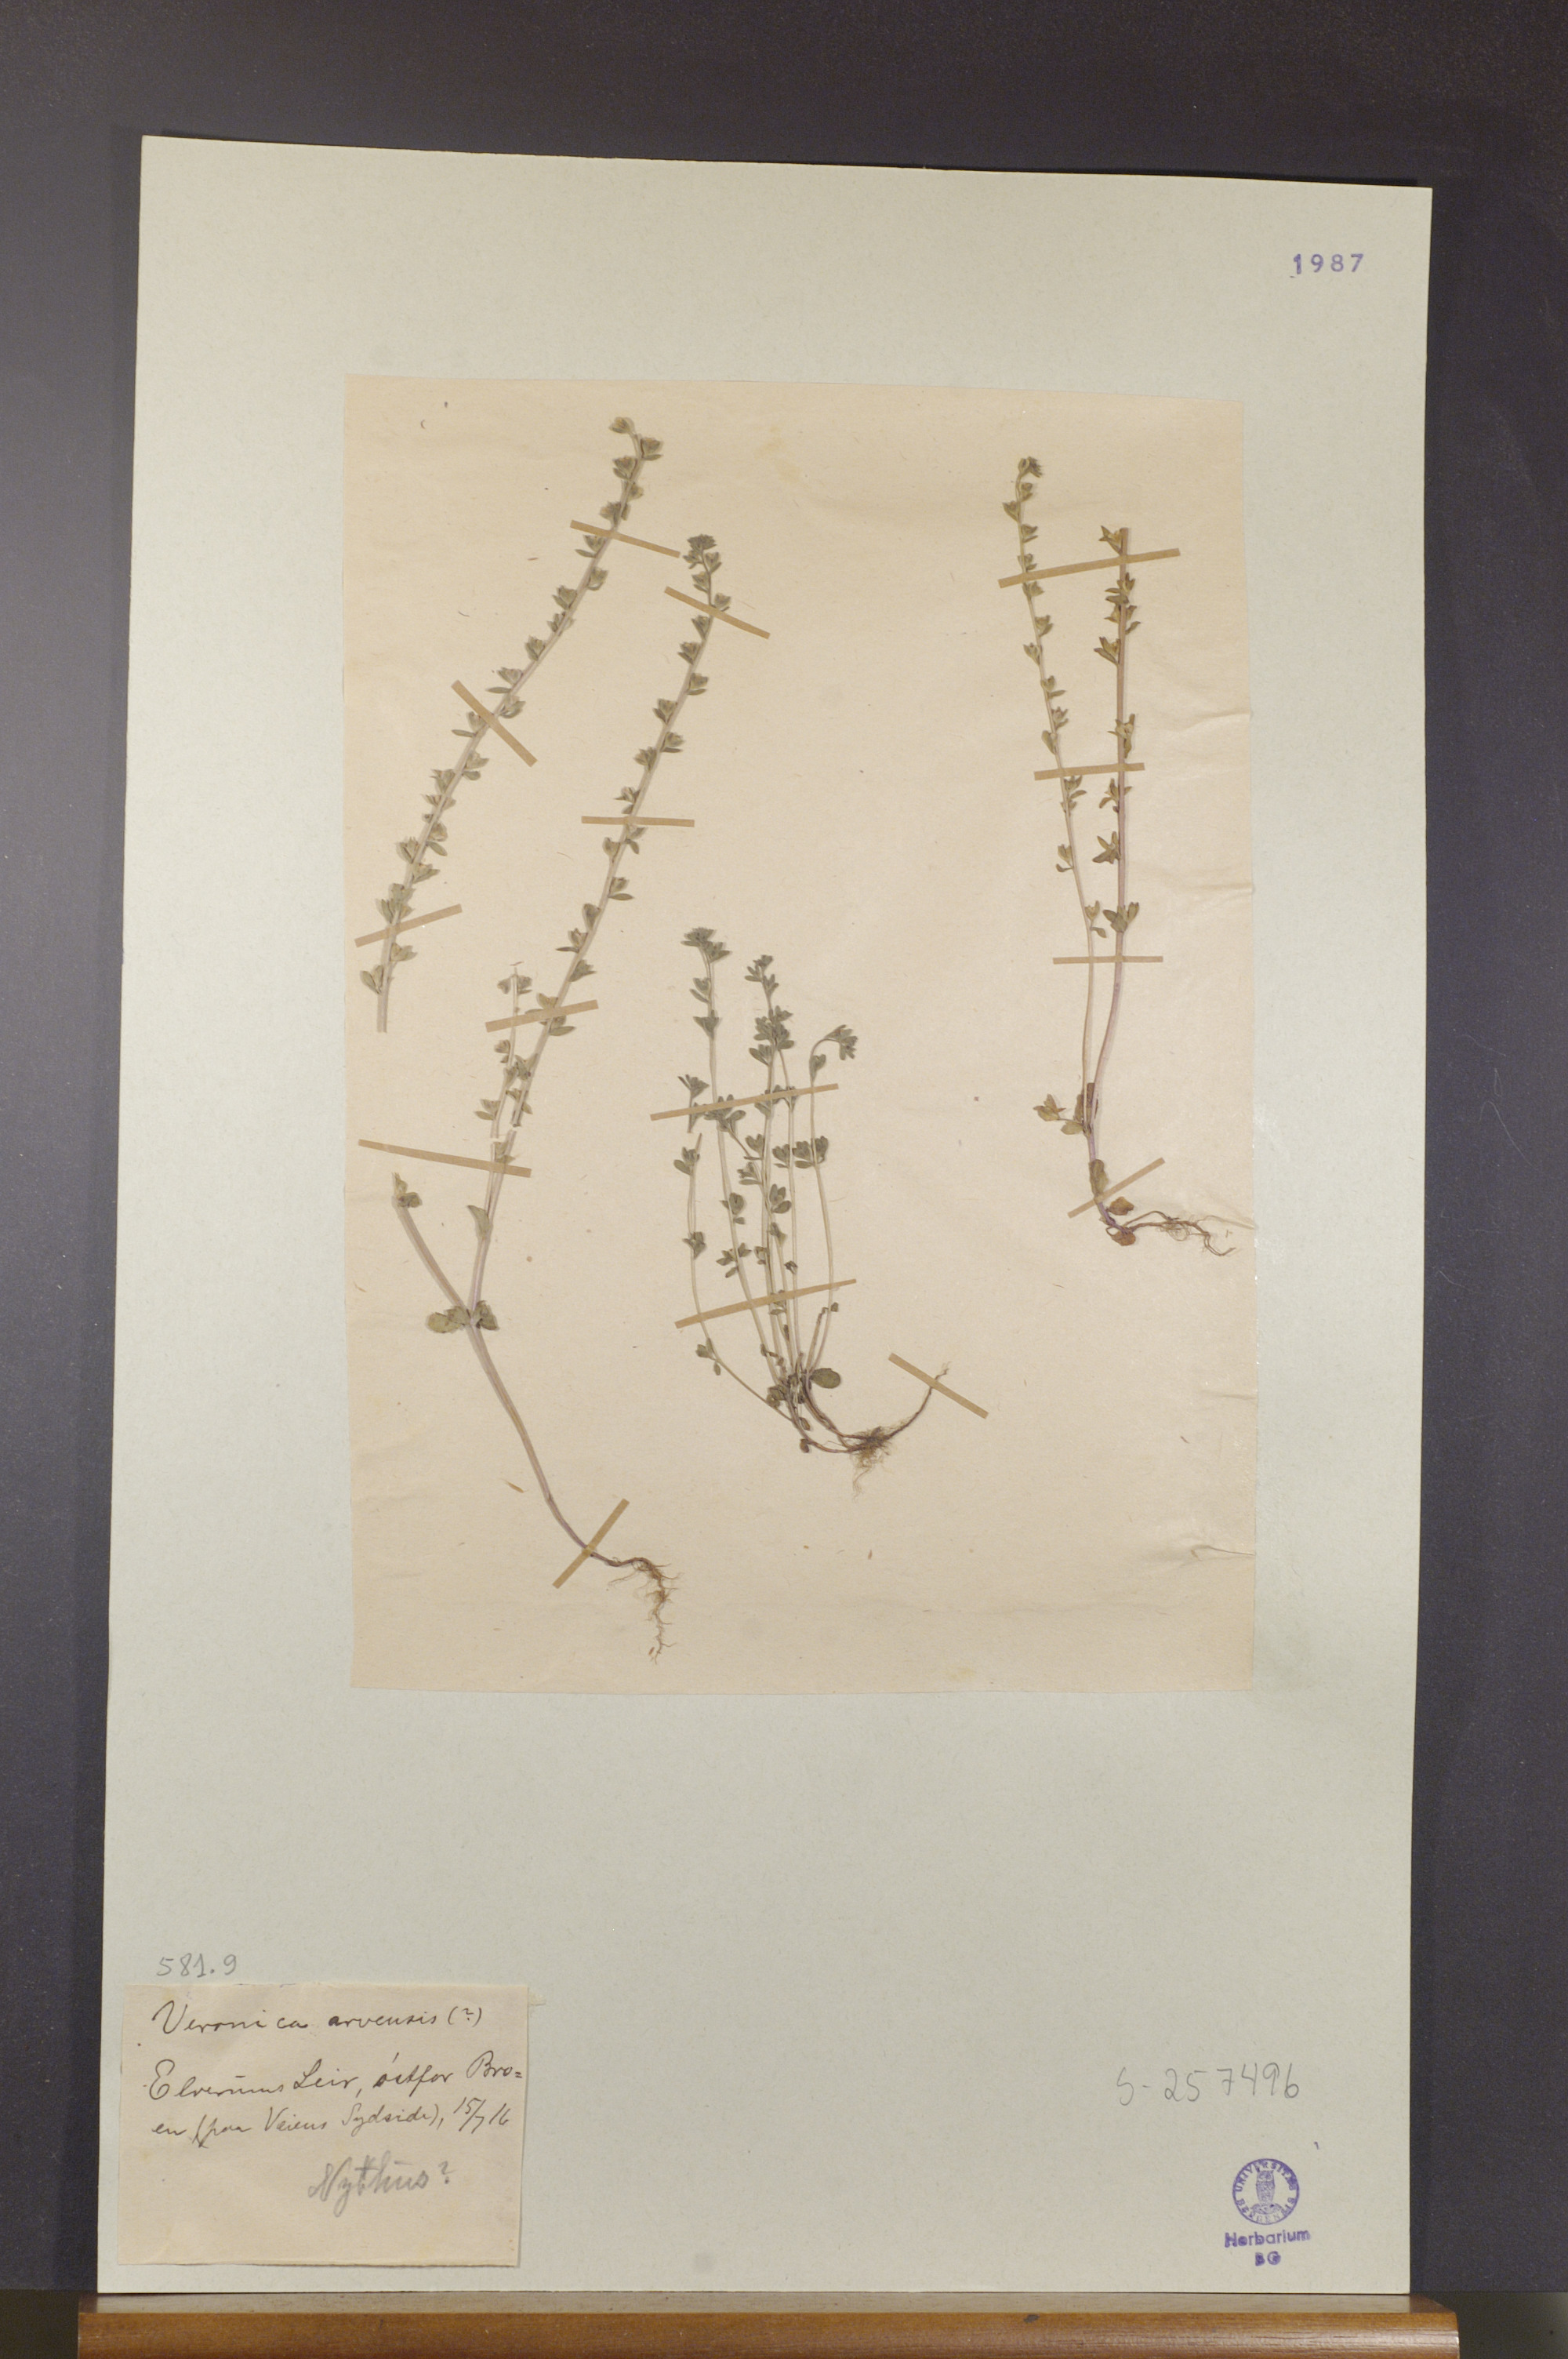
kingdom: Plantae
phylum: Tracheophyta
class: Magnoliopsida
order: Lamiales
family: Plantaginaceae
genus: Veronica
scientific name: Veronica arvensis
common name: Corn speedwell
